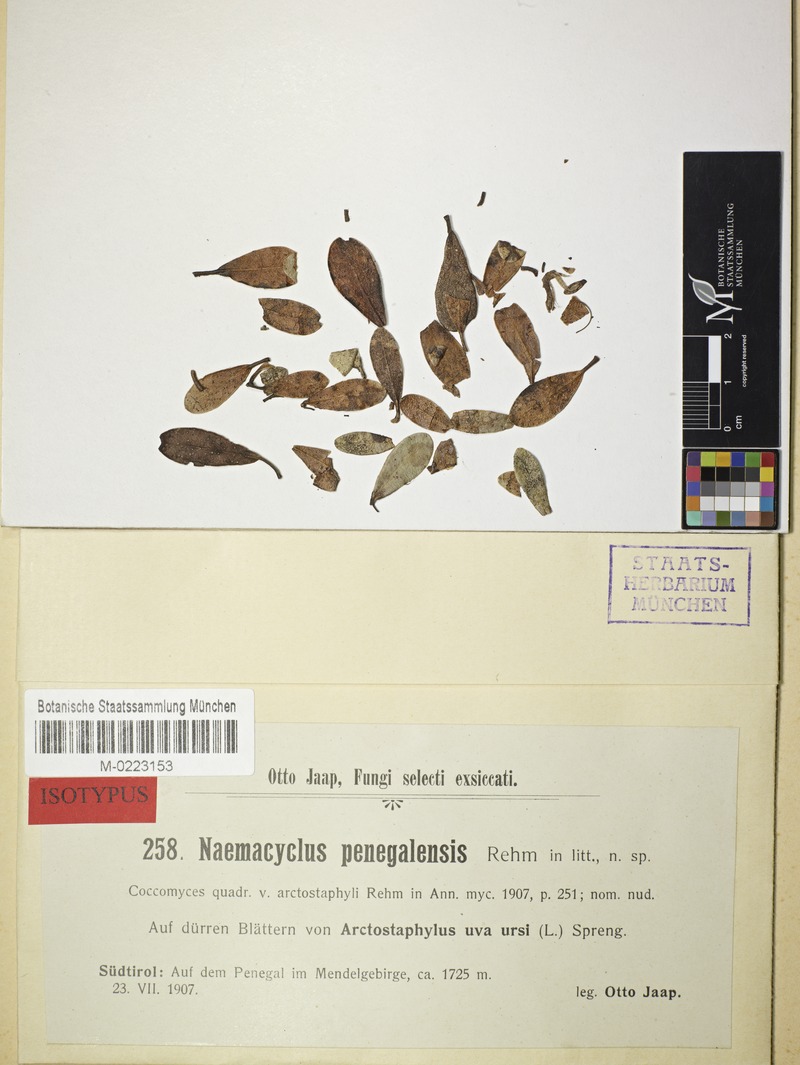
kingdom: Fungi
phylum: Ascomycota
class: Leotiomycetes
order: Rhytismatales
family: Rhytismataceae
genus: Coccomyces
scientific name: Coccomyces arctostaphyli
